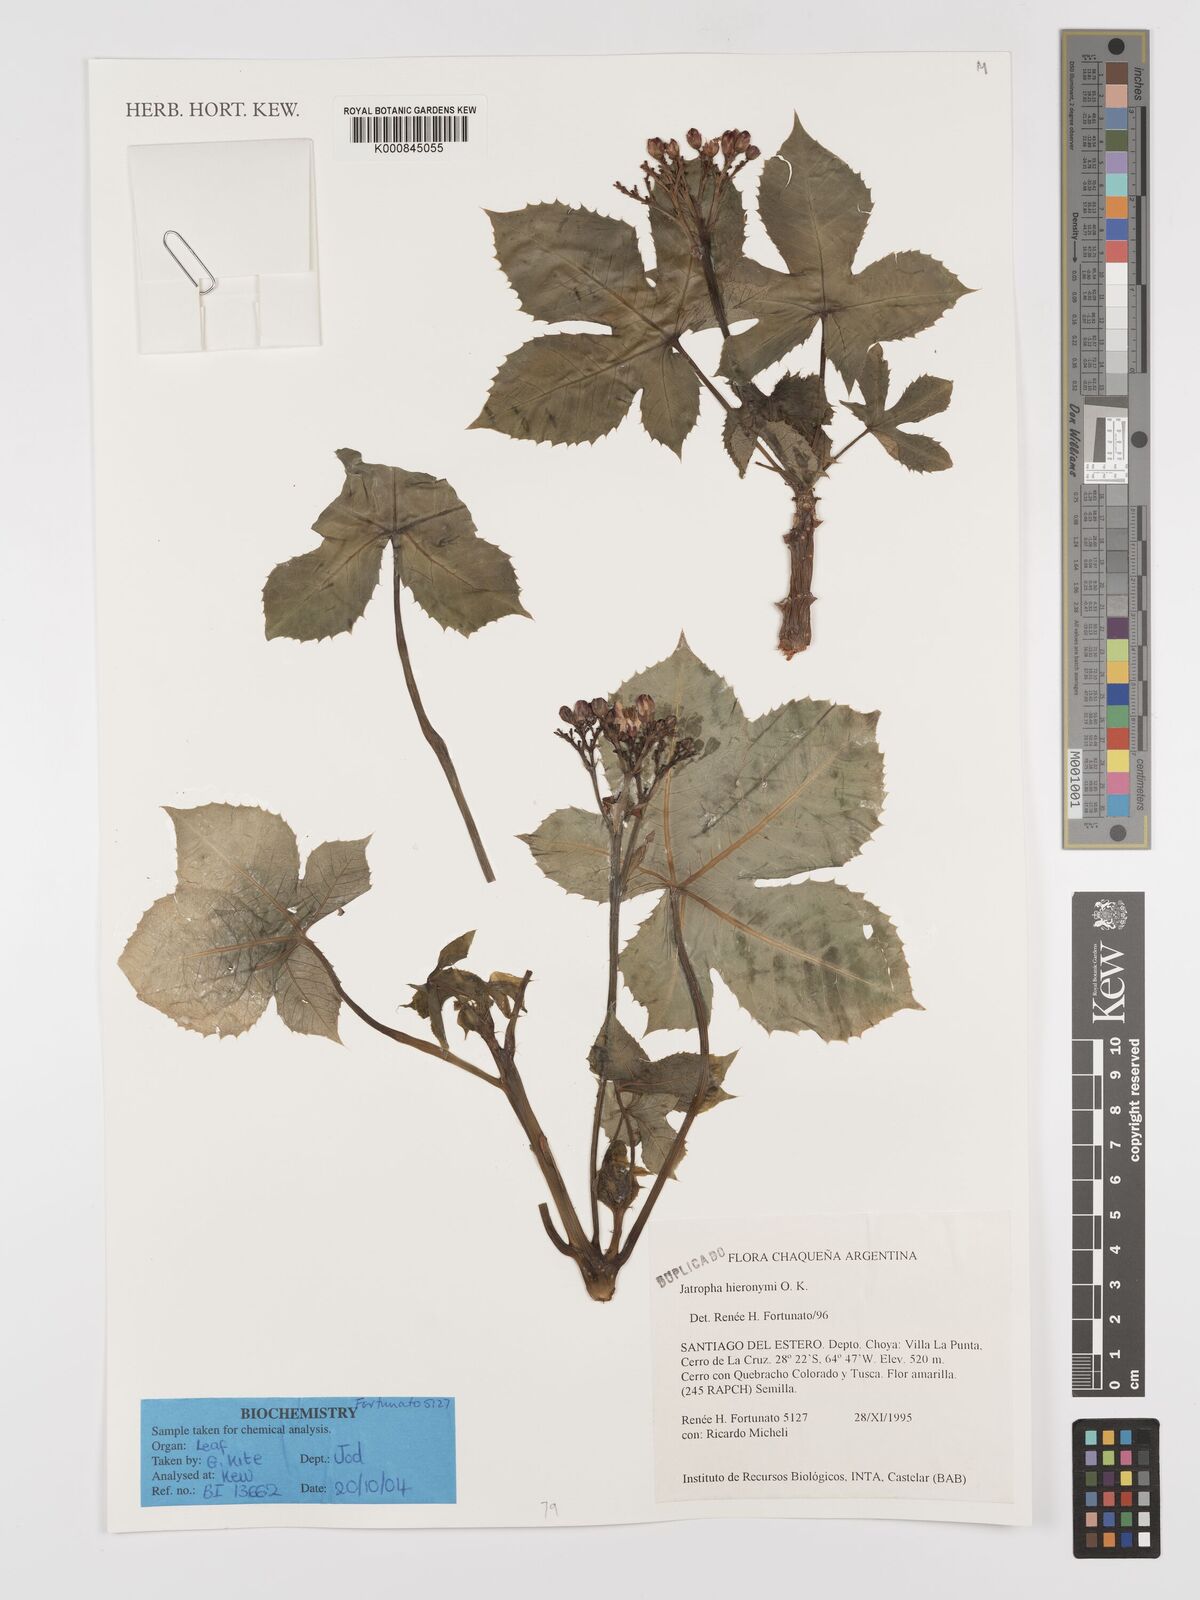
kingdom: Plantae
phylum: Tracheophyta
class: Magnoliopsida
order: Malpighiales
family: Euphorbiaceae
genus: Jatropha
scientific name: Jatropha hieronymi
